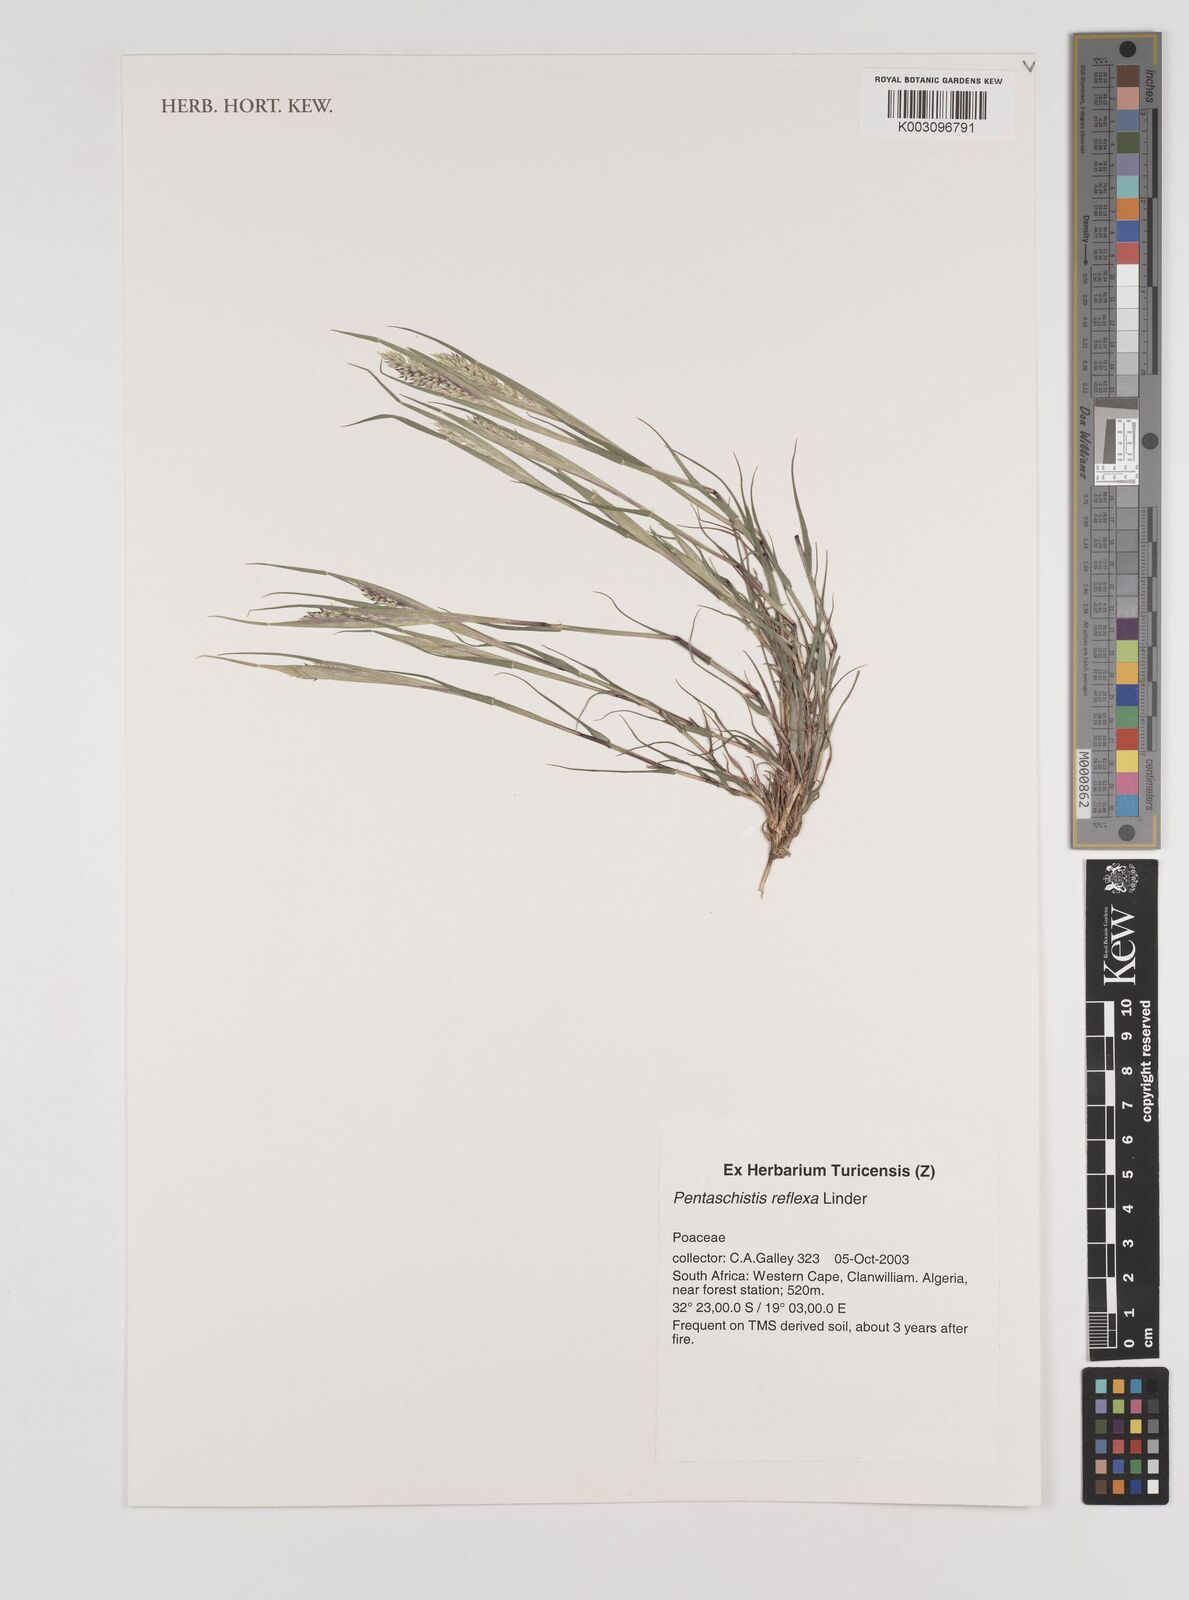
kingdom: Plantae
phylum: Tracheophyta
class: Liliopsida
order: Poales
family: Poaceae
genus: Pentameris
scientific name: Pentameris reflexa
